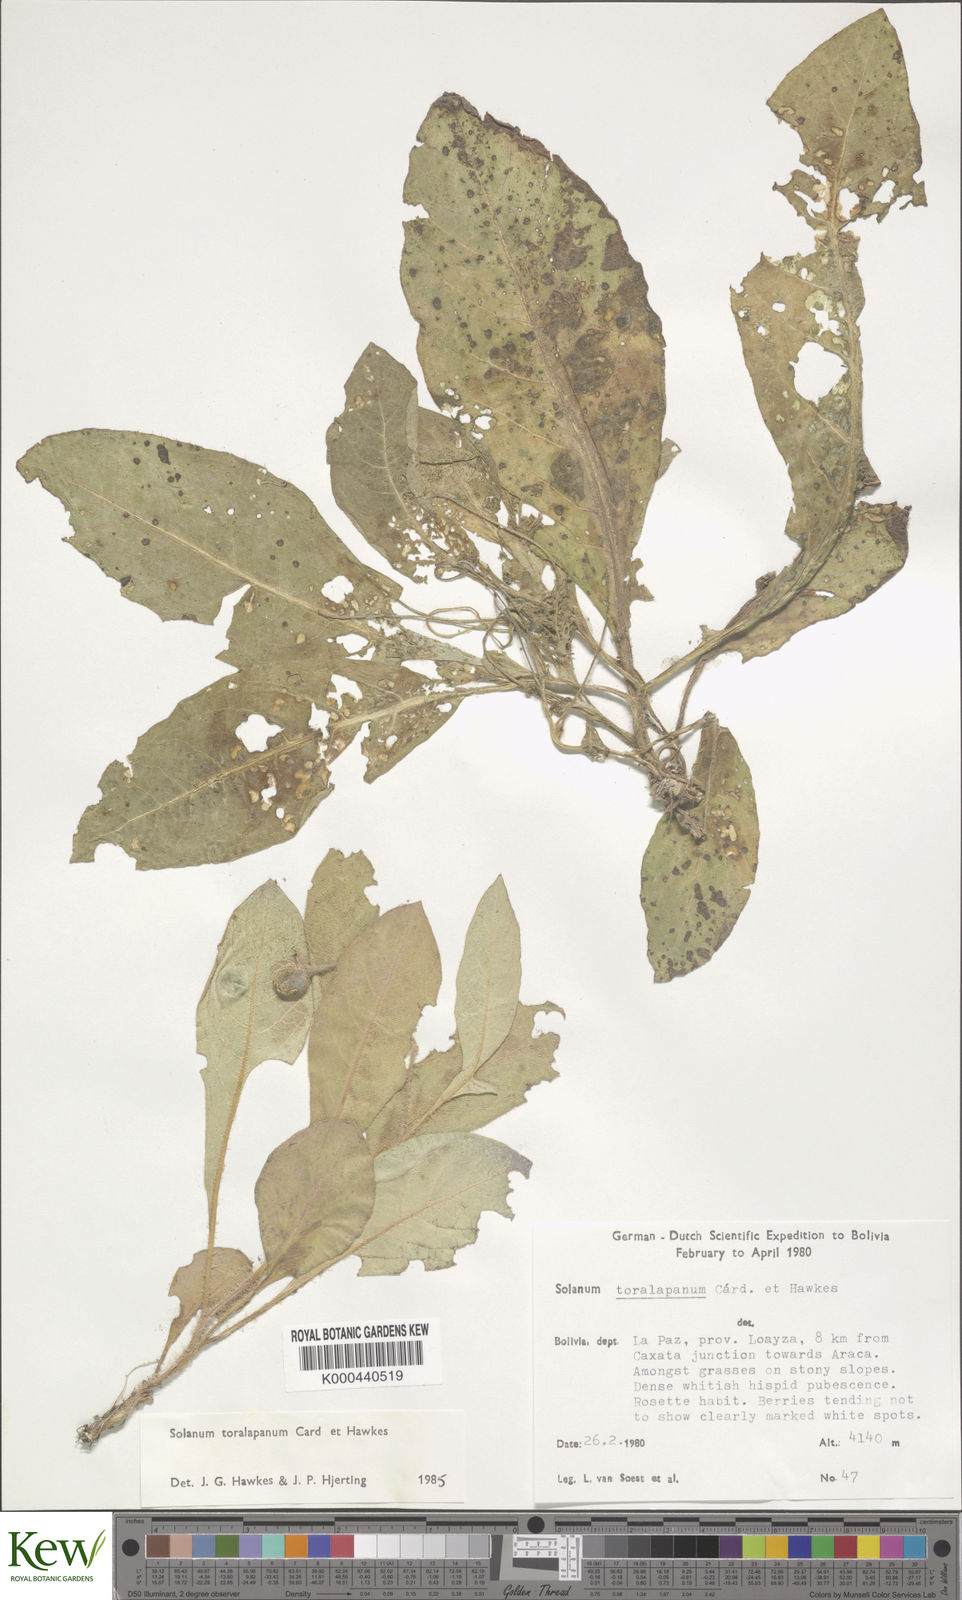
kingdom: Plantae
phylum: Tracheophyta
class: Magnoliopsida
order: Solanales
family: Solanaceae
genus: Solanum
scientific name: Solanum boliviense
